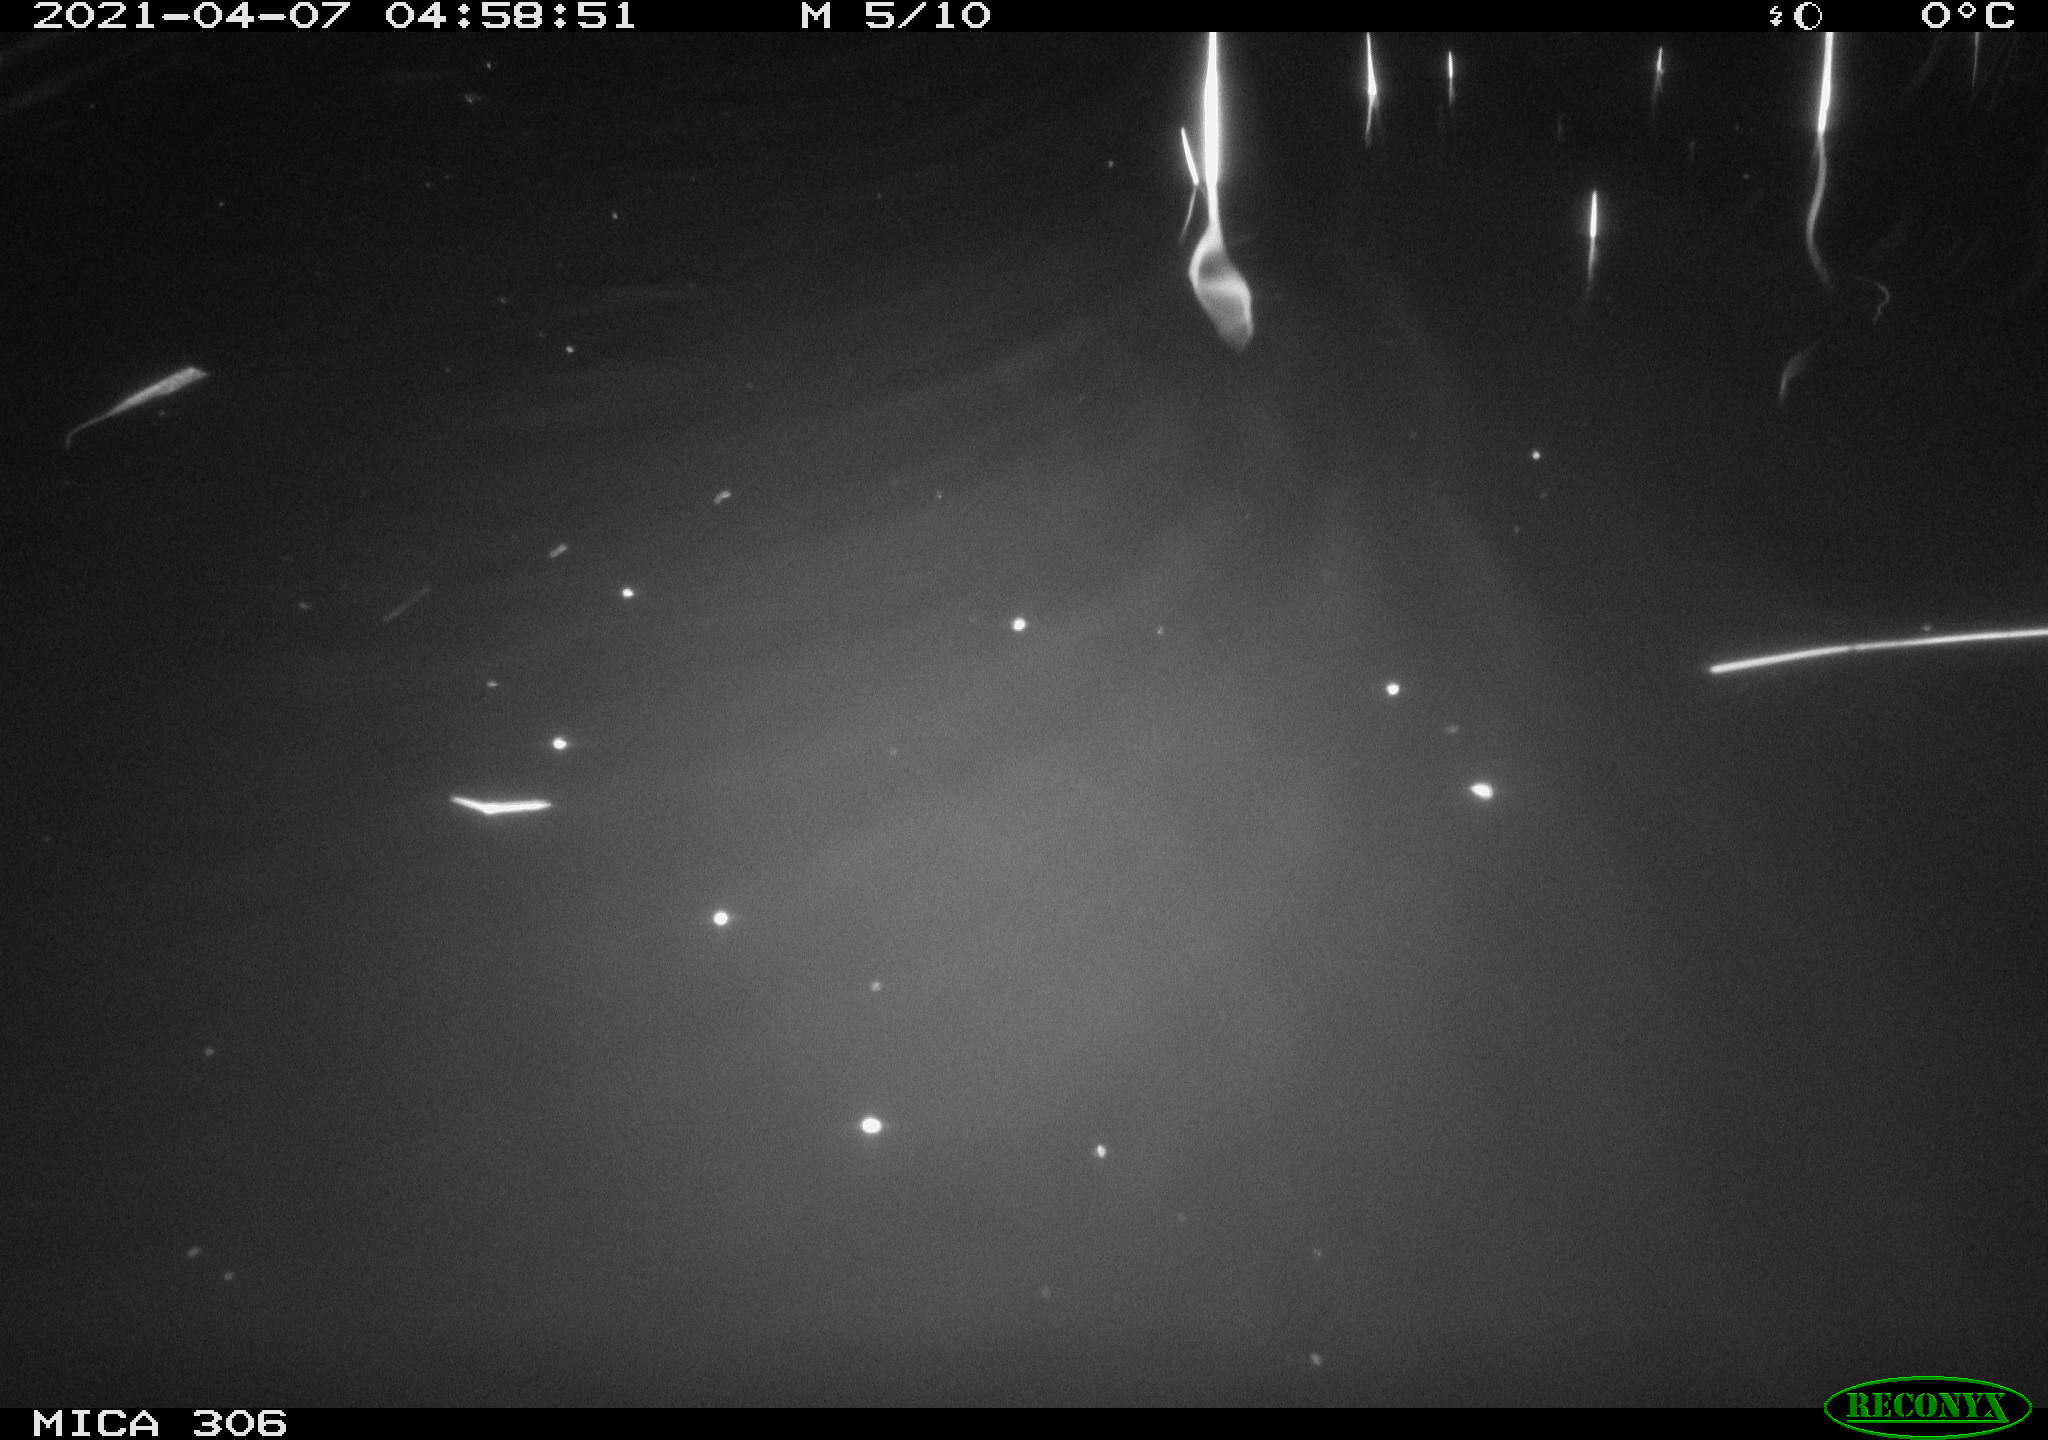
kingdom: Animalia
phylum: Chordata
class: Mammalia
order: Rodentia
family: Cricetidae
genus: Ondatra
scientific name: Ondatra zibethicus
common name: Muskrat
